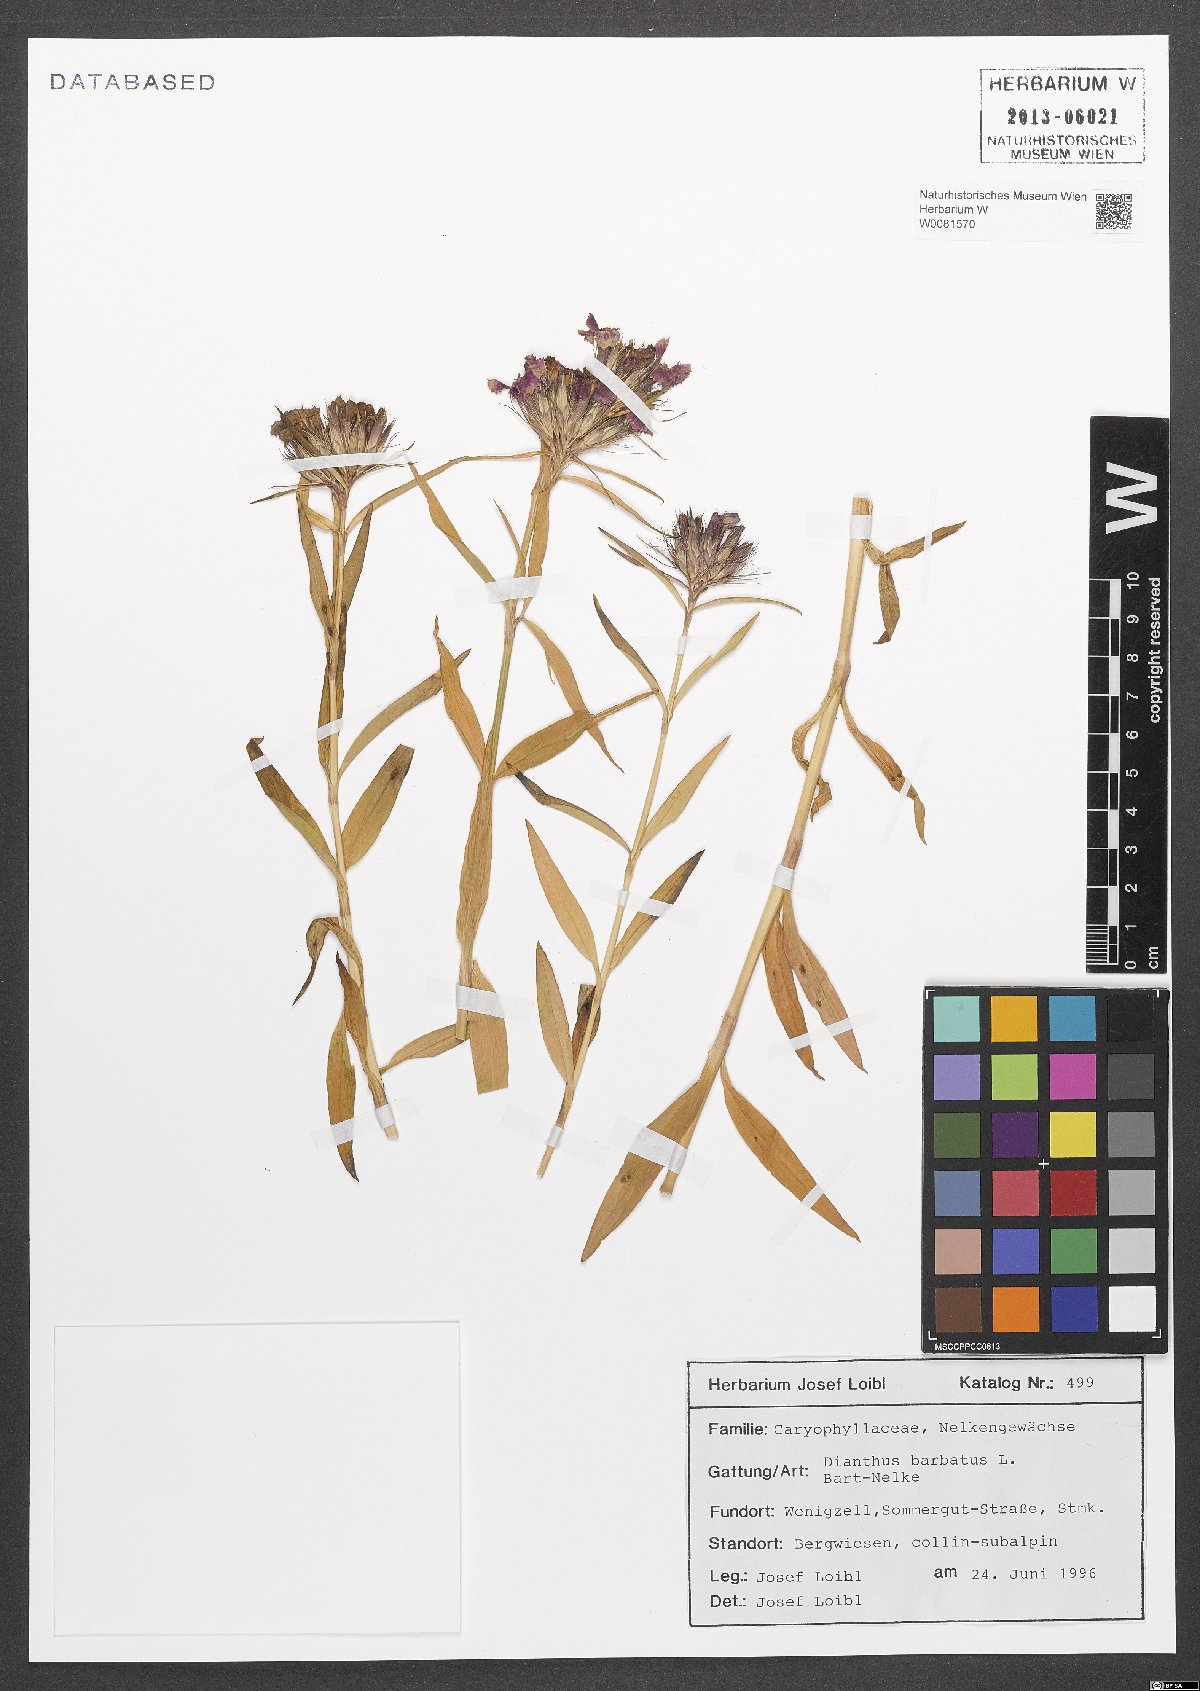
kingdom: Plantae
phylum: Tracheophyta
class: Magnoliopsida
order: Caryophyllales
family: Caryophyllaceae
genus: Dianthus
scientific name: Dianthus barbatus
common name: Sweet-william
